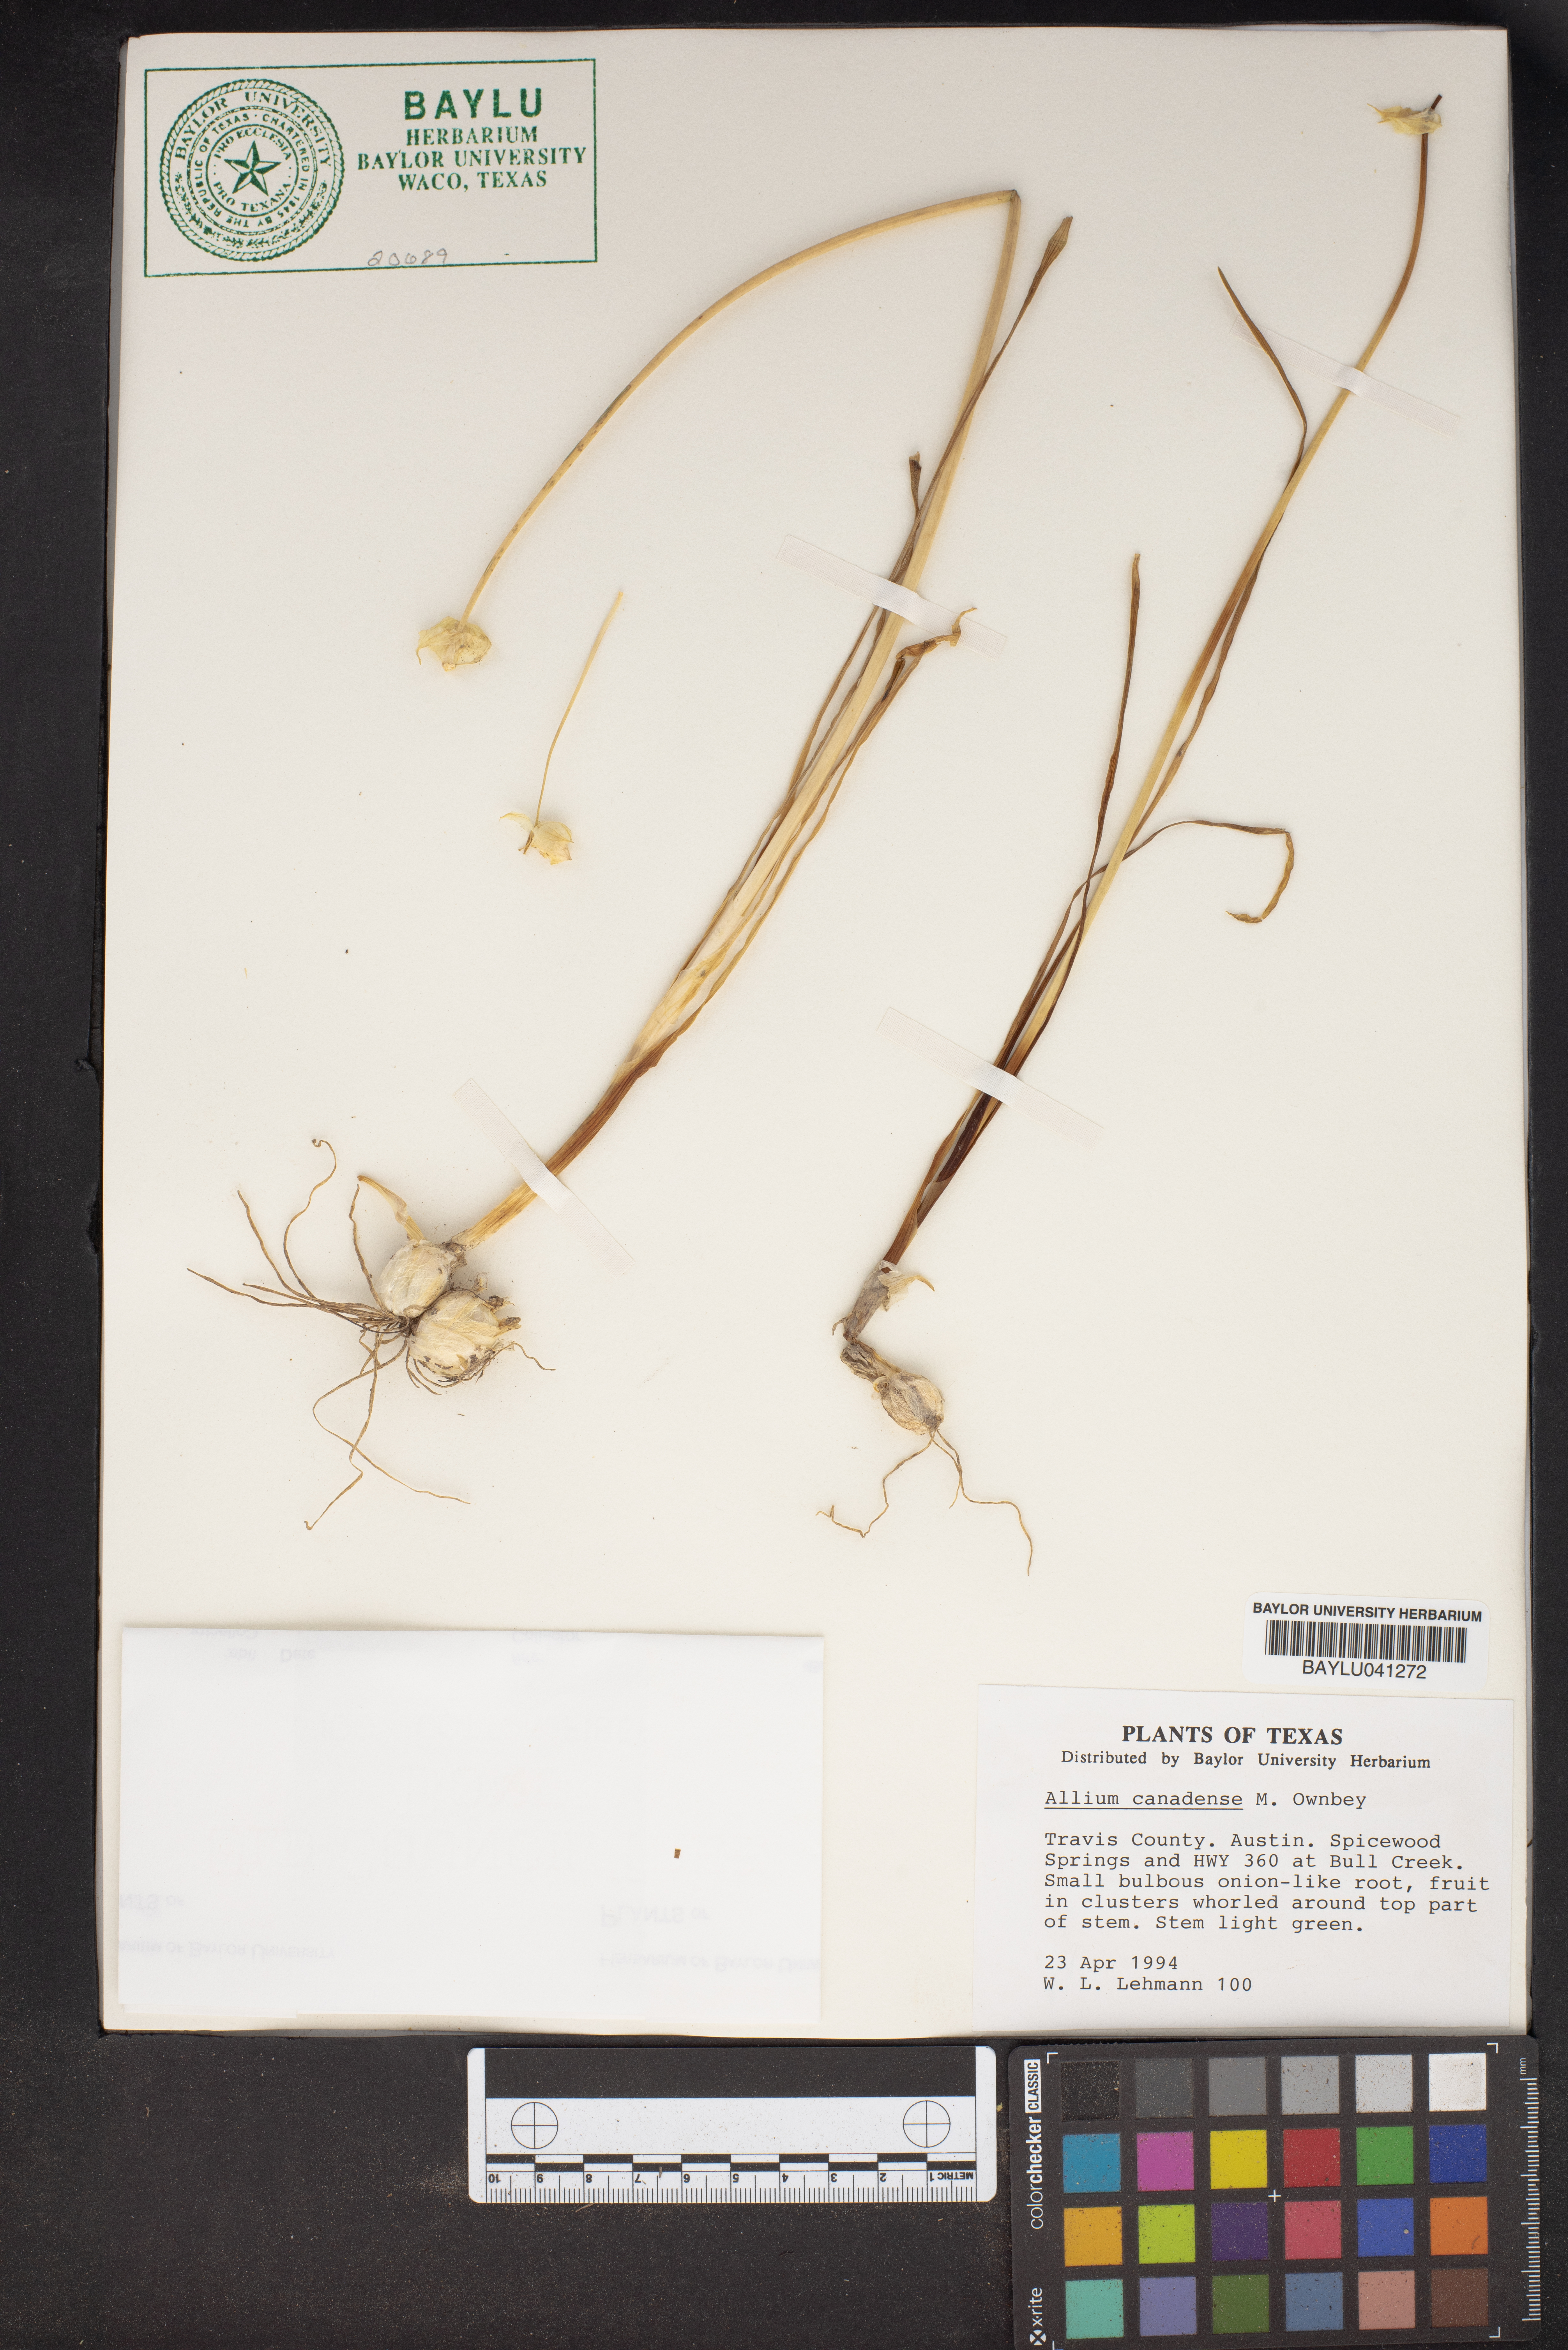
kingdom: Plantae
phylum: Tracheophyta
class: Liliopsida
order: Asparagales
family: Amaryllidaceae
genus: Allium
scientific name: Allium canadense
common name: Meadow garlic
